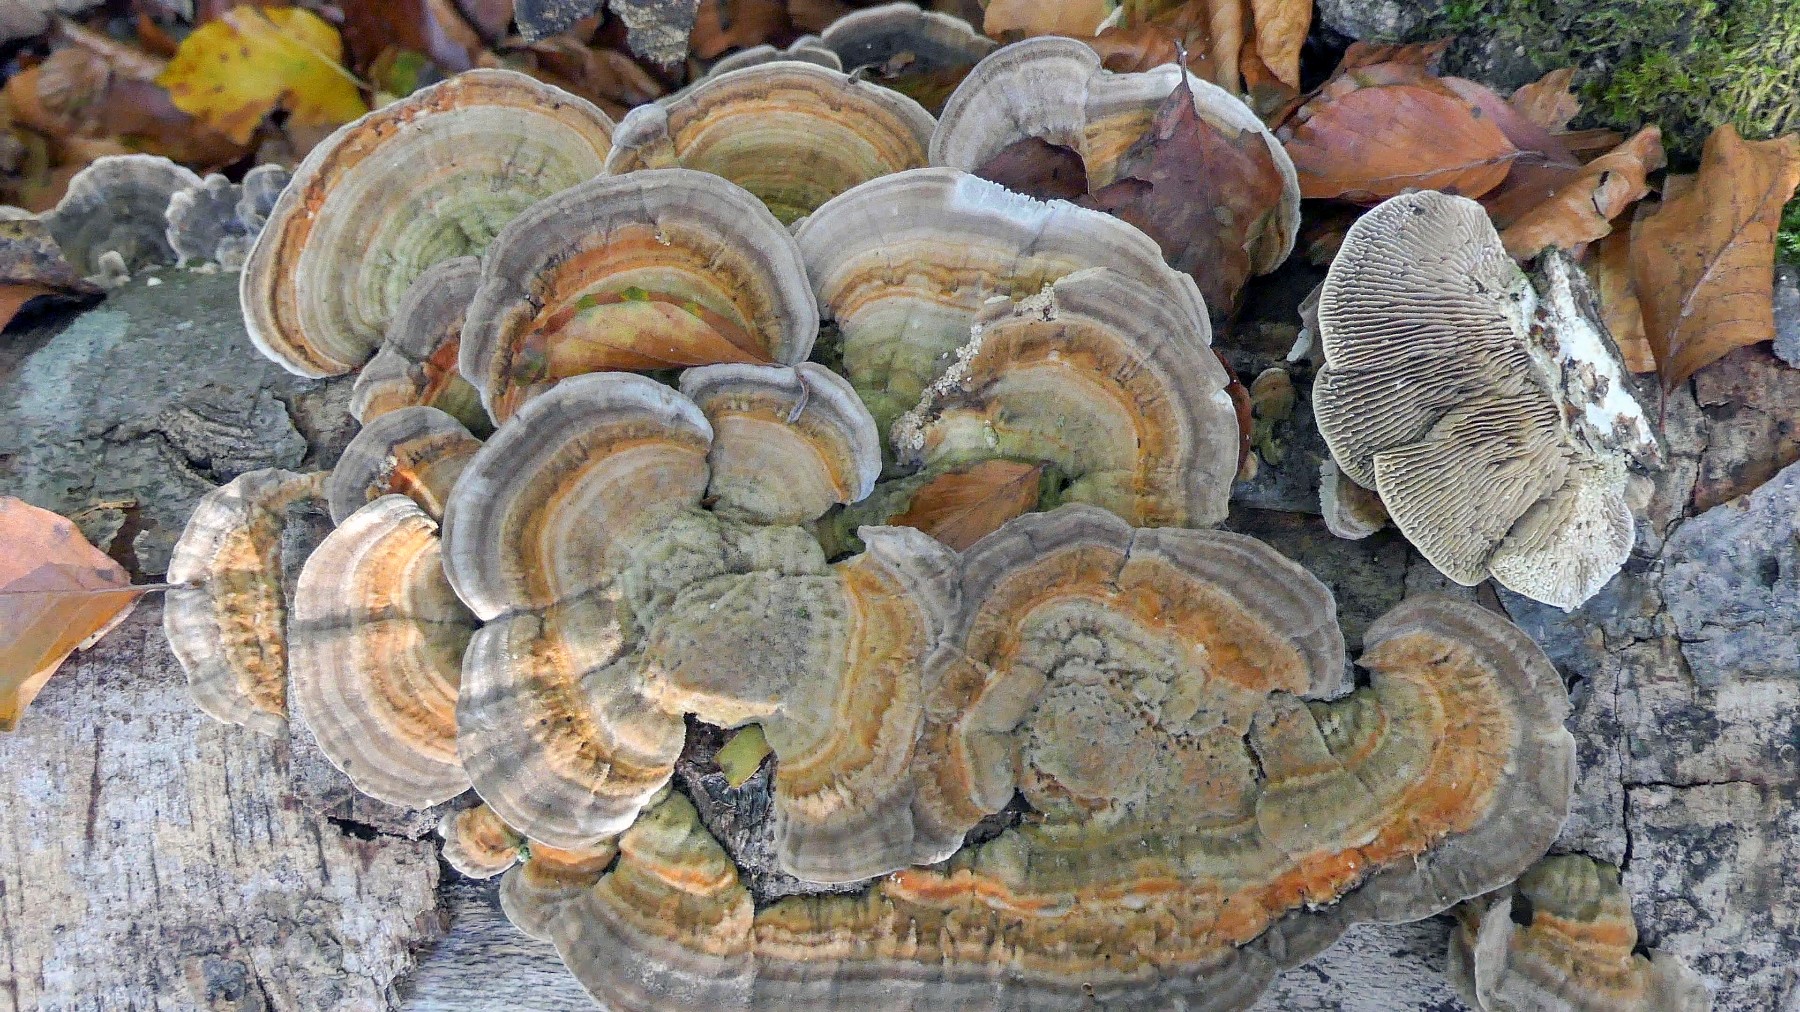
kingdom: Fungi
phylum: Basidiomycota
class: Agaricomycetes
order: Polyporales
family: Polyporaceae
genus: Lenzites
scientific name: Lenzites betulinus
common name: birke-læderporesvamp
